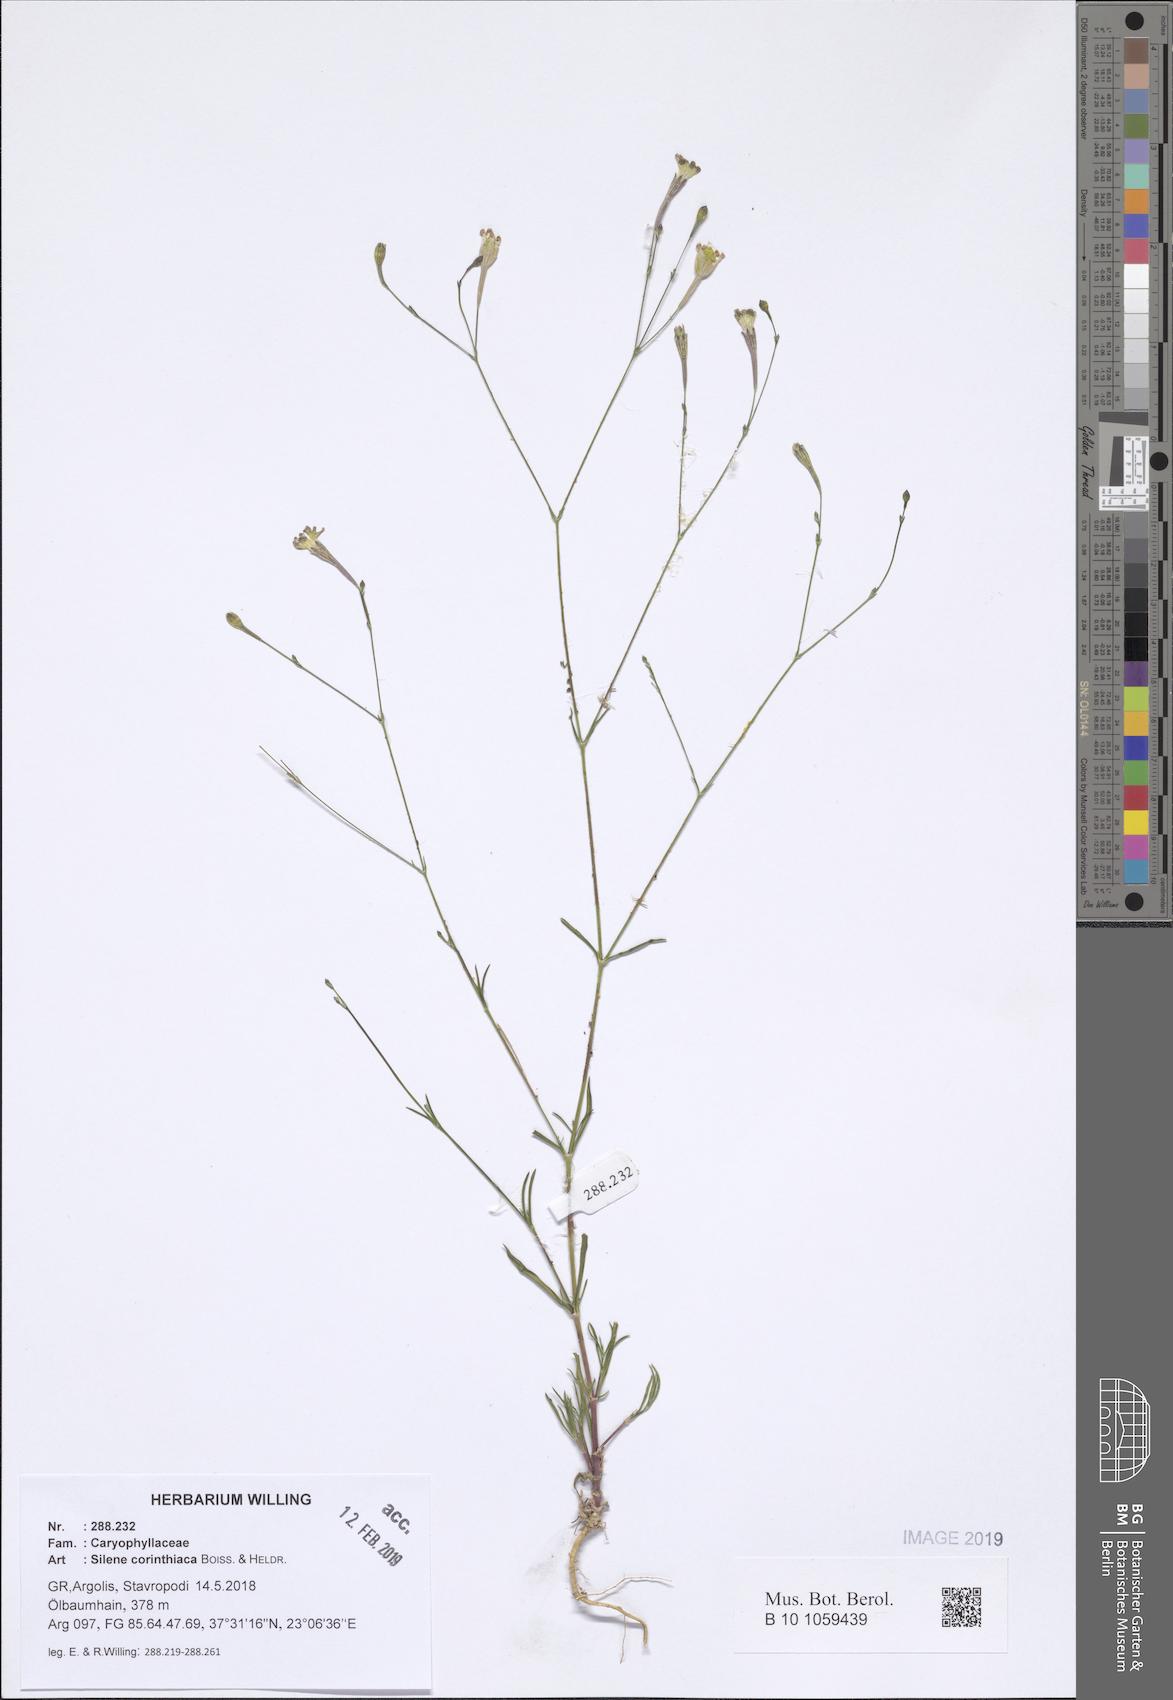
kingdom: Plantae
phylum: Tracheophyta
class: Magnoliopsida
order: Caryophyllales
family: Caryophyllaceae
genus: Silene
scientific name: Silene corinthiaca
